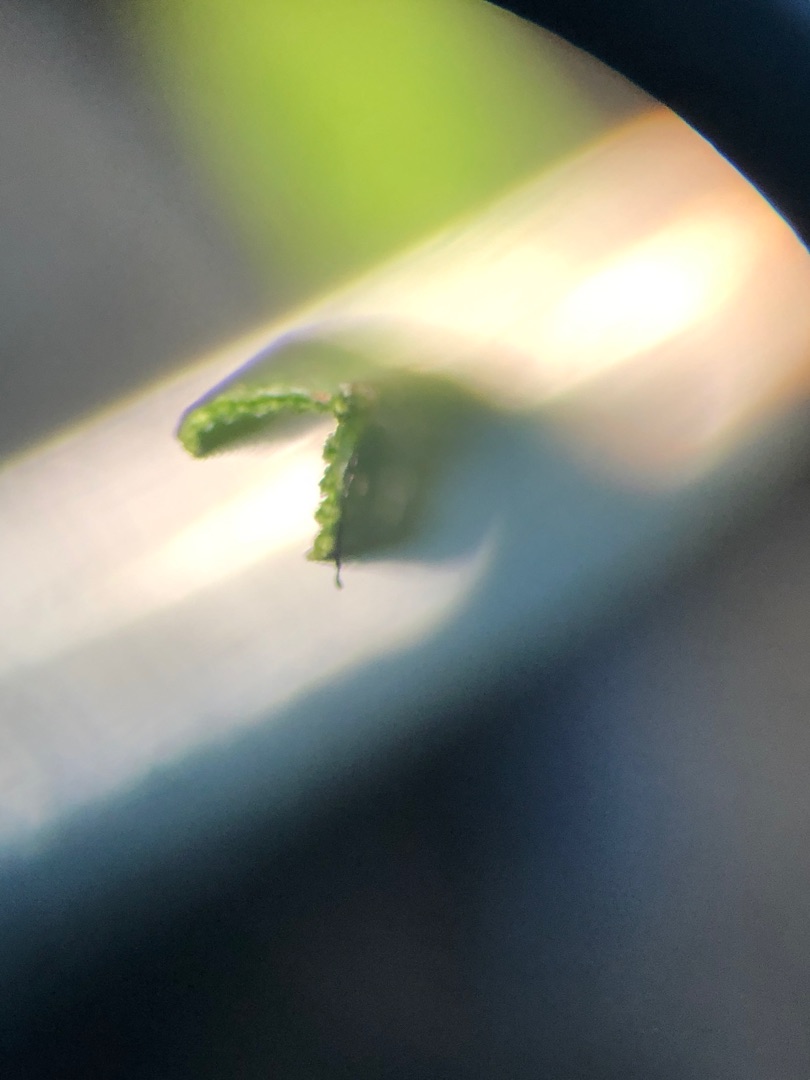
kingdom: Plantae
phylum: Tracheophyta
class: Liliopsida
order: Poales
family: Poaceae
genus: Lolium
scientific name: Lolium perenne
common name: Almindelig rajgræs
